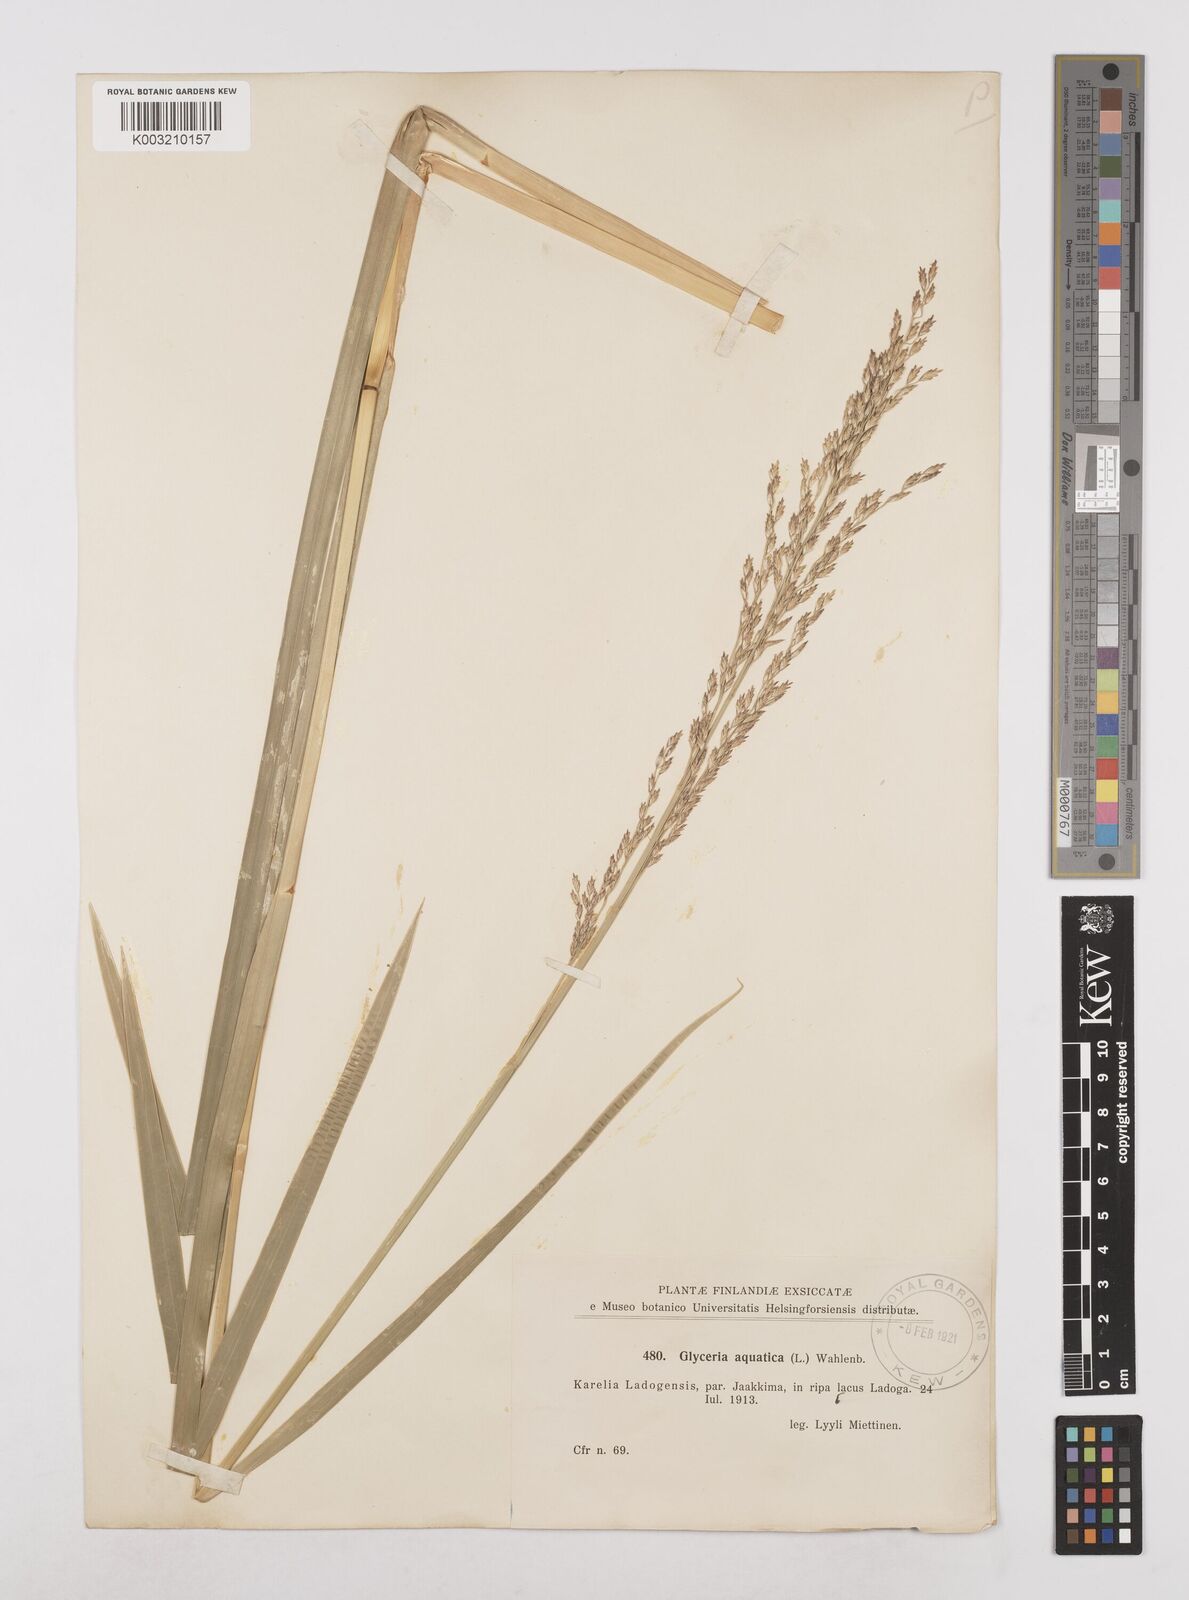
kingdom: Plantae
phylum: Tracheophyta
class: Liliopsida
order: Poales
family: Poaceae
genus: Glyceria
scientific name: Glyceria maxima
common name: Reed mannagrass
